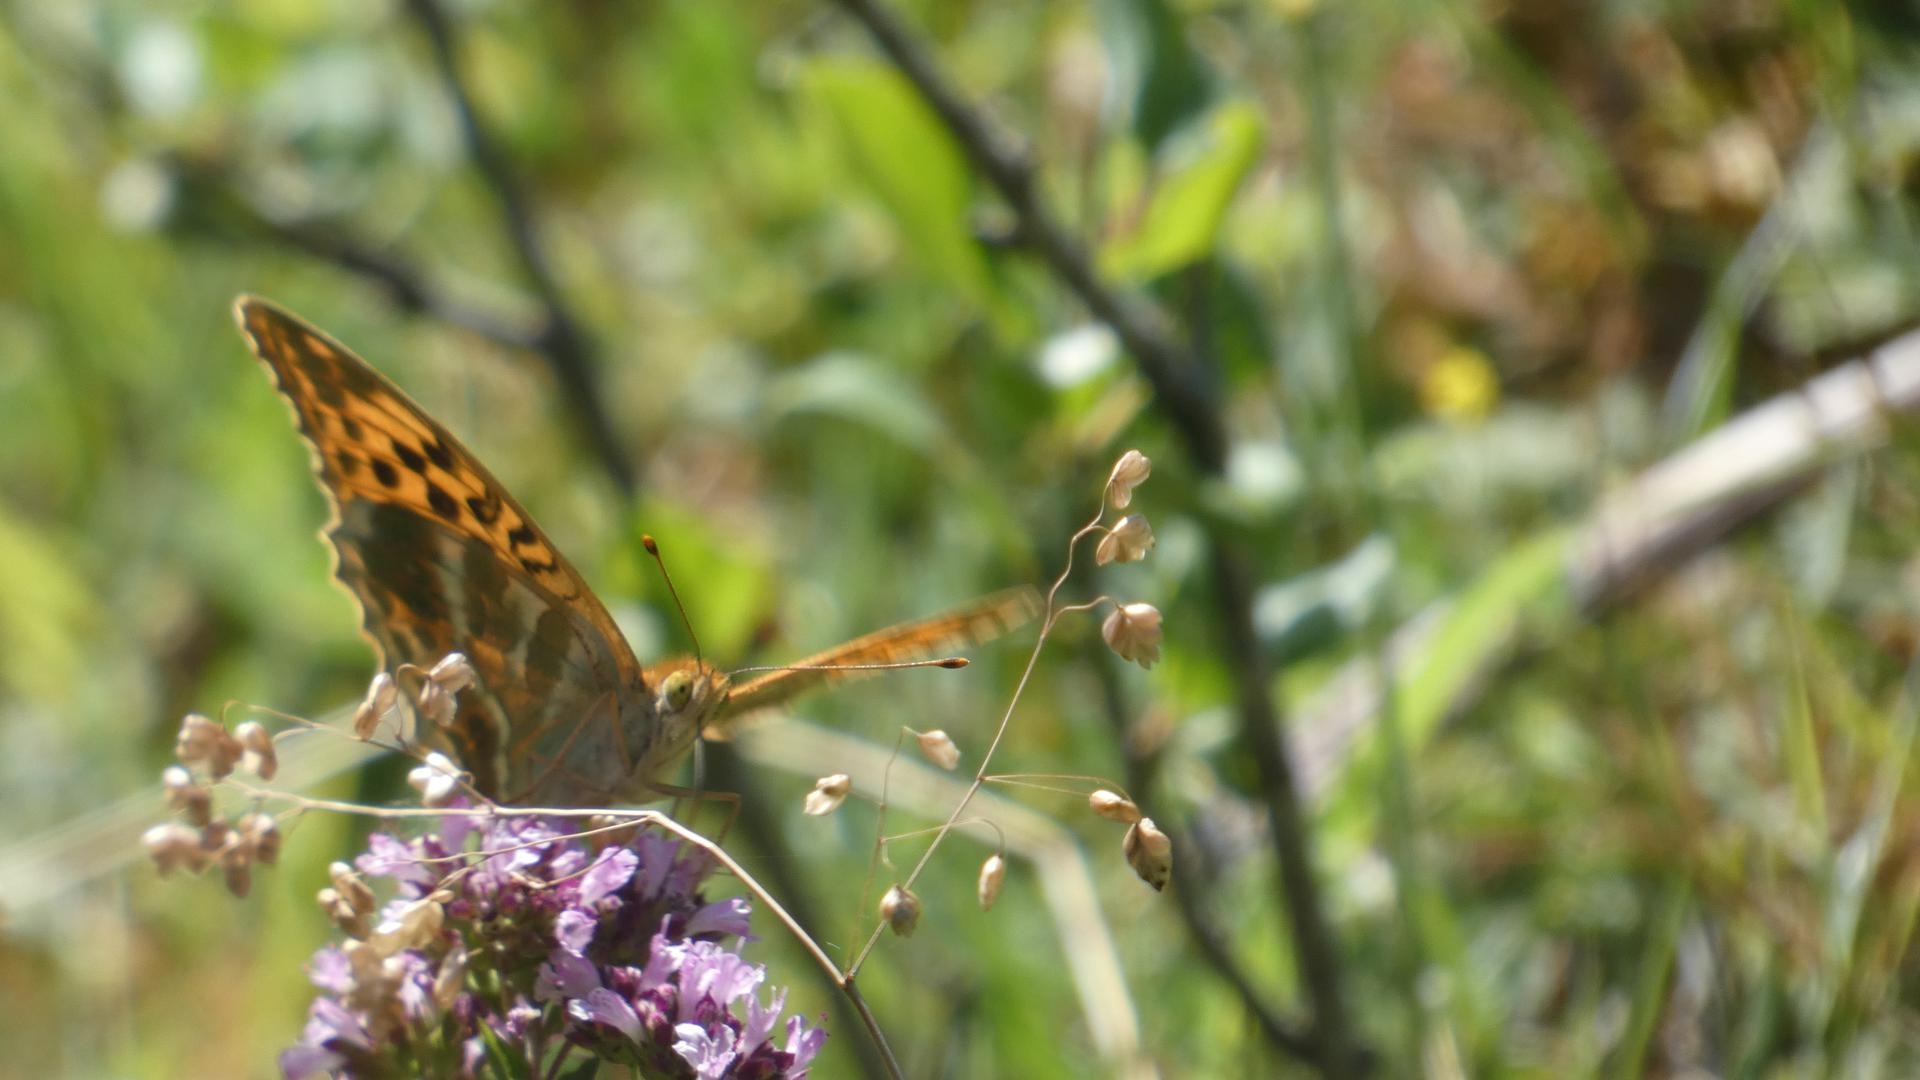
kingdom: Animalia
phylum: Arthropoda
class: Insecta
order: Lepidoptera
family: Nymphalidae
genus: Argynnis
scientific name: Argynnis paphia
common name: Kejserkåbe
